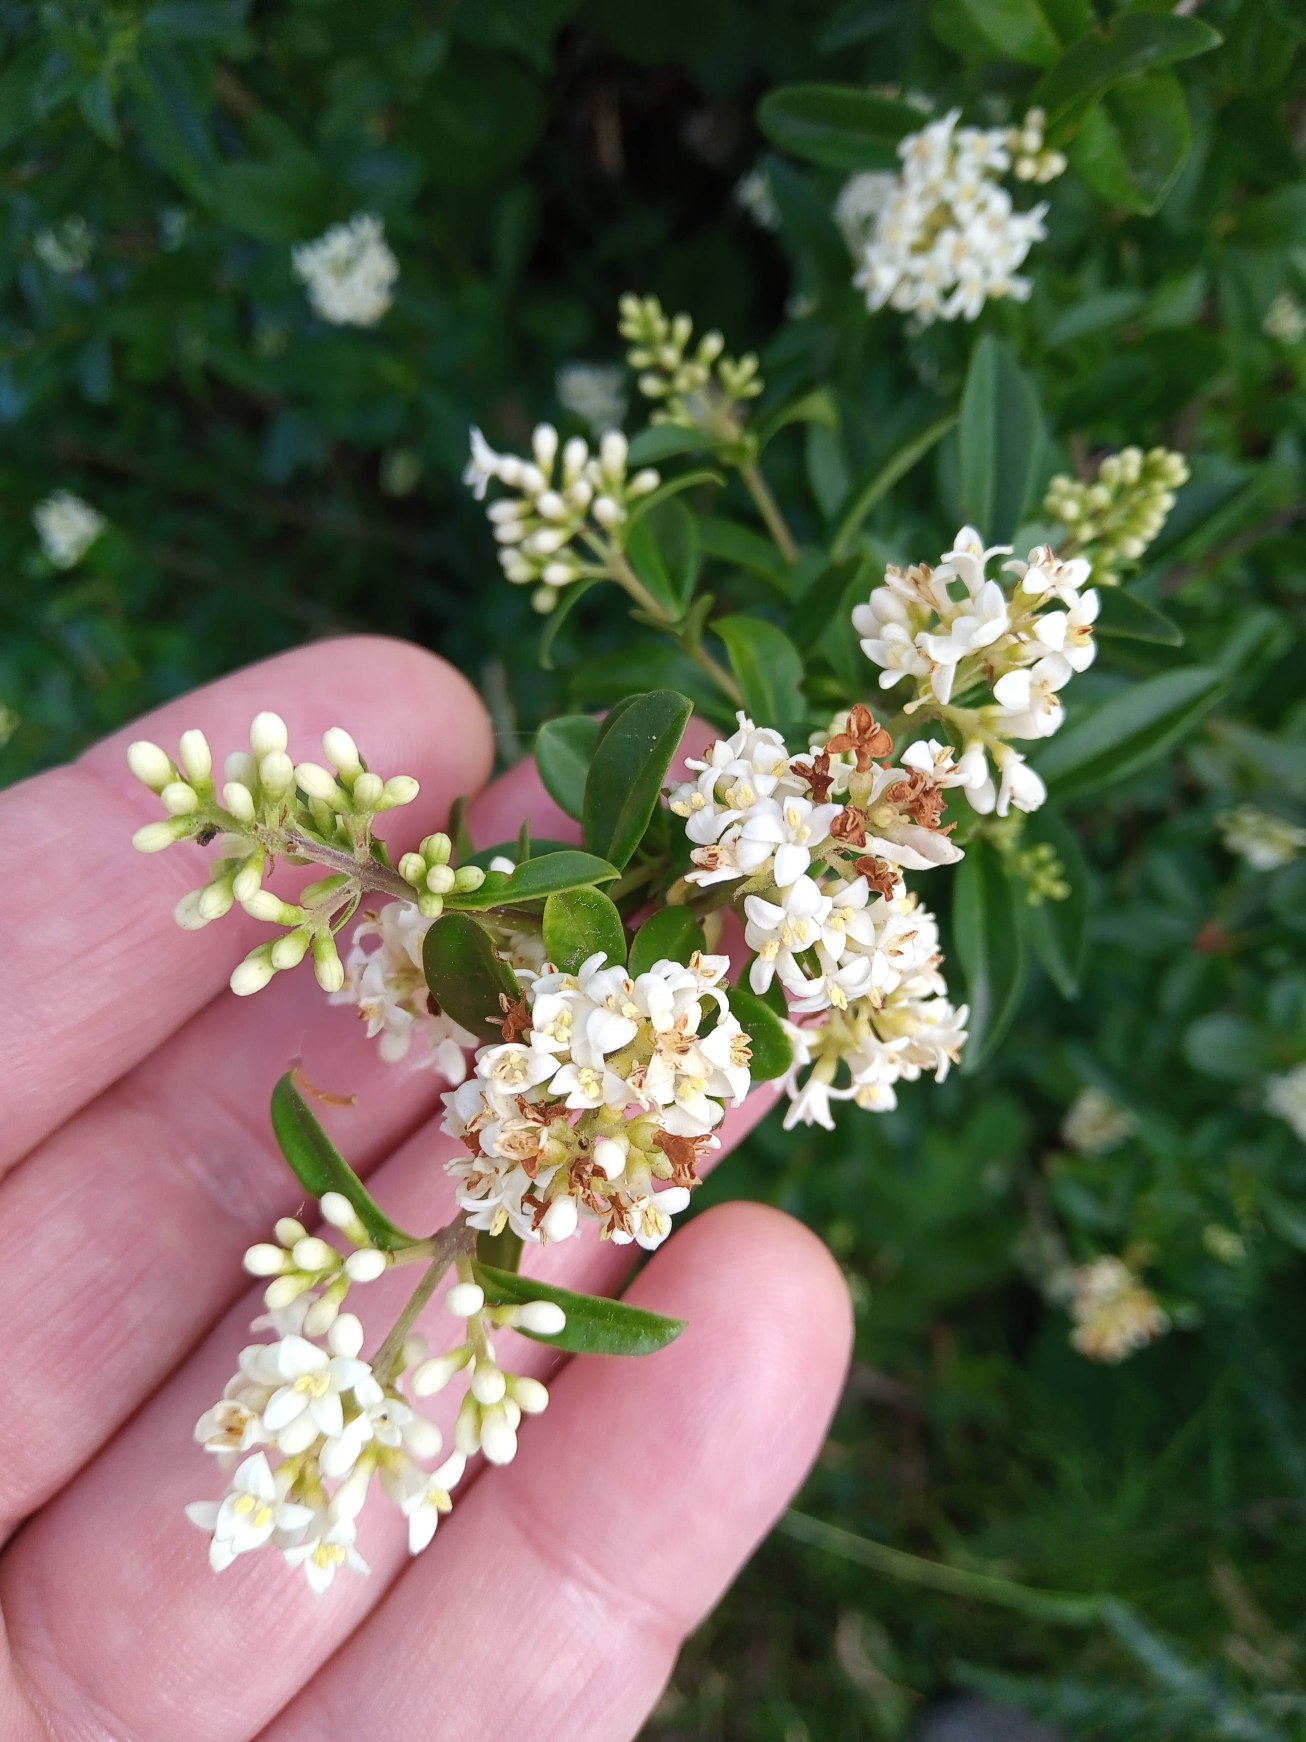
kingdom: Plantae
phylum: Tracheophyta
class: Magnoliopsida
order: Lamiales
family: Oleaceae
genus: Ligustrum
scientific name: Ligustrum vulgare
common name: Liguster
